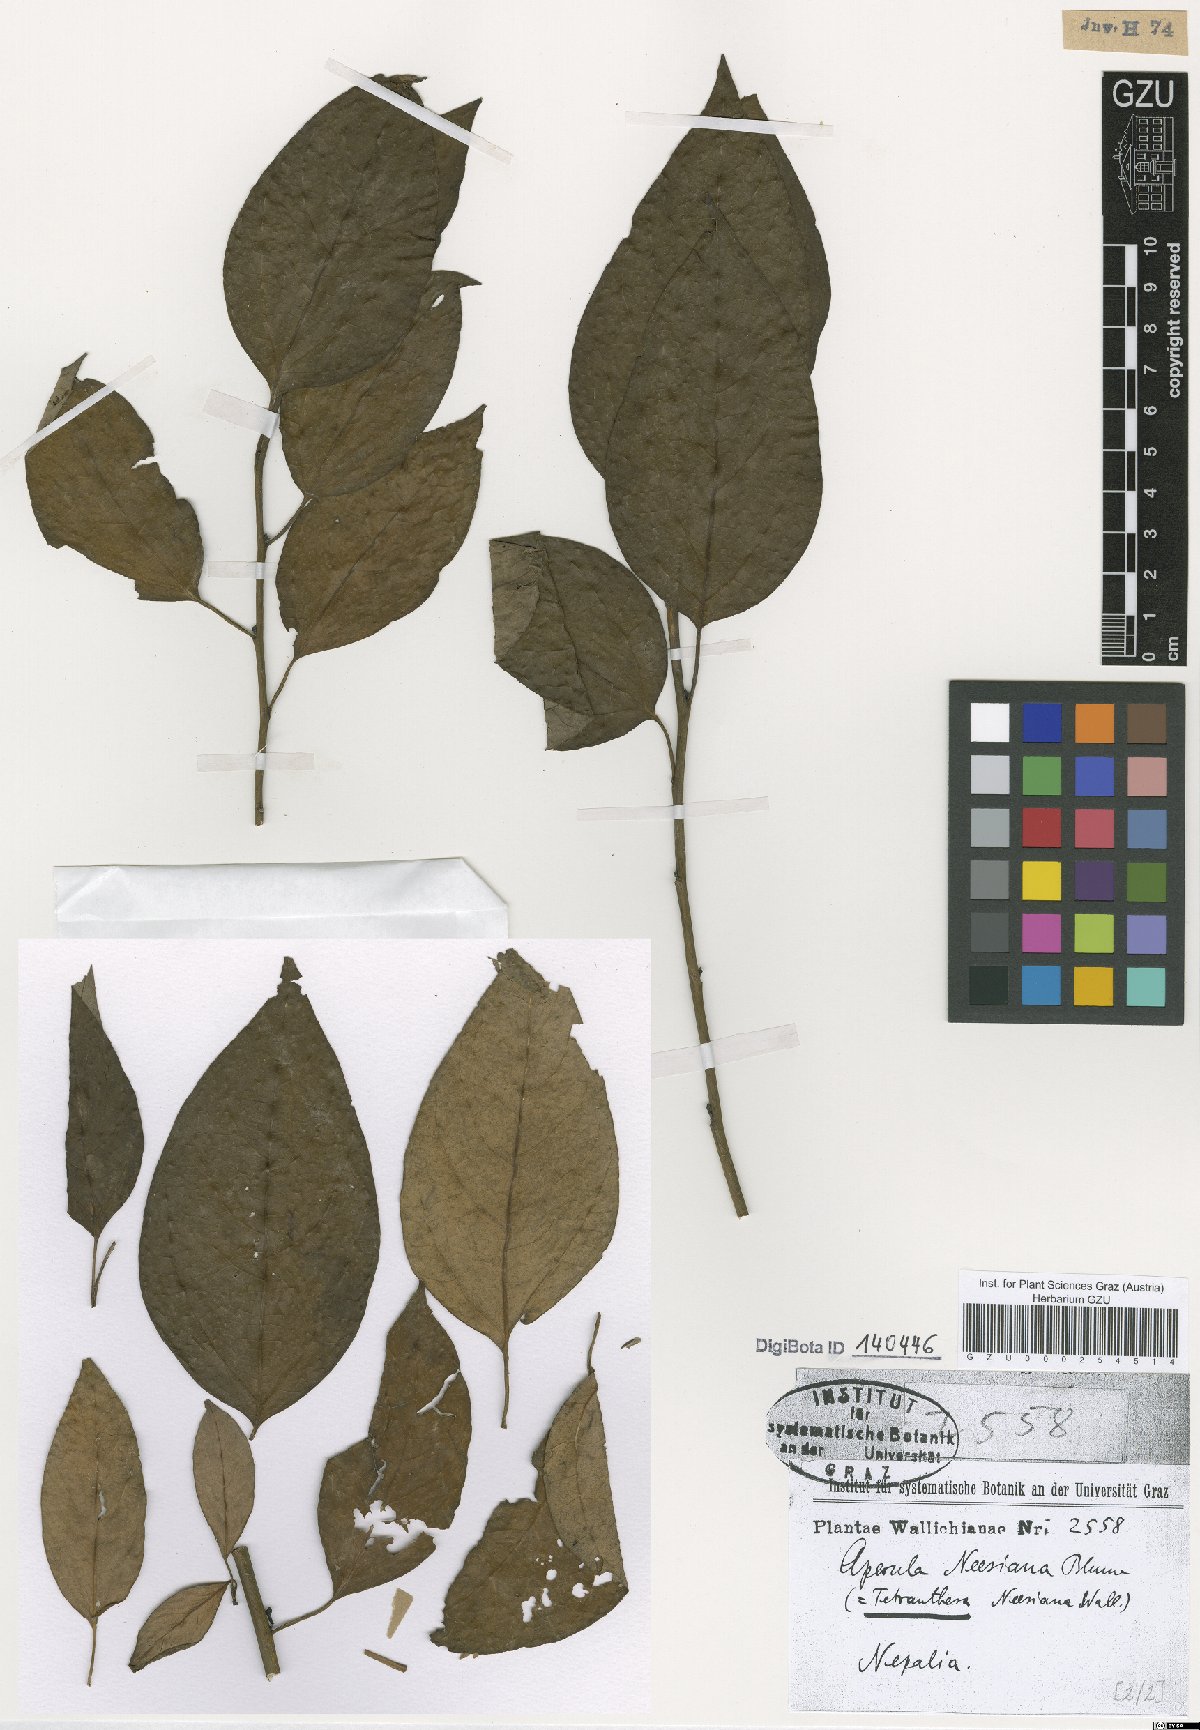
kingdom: Plantae
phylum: Tracheophyta
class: Magnoliopsida
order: Laurales
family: Lauraceae
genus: Lindera
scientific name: Lindera neesiana
